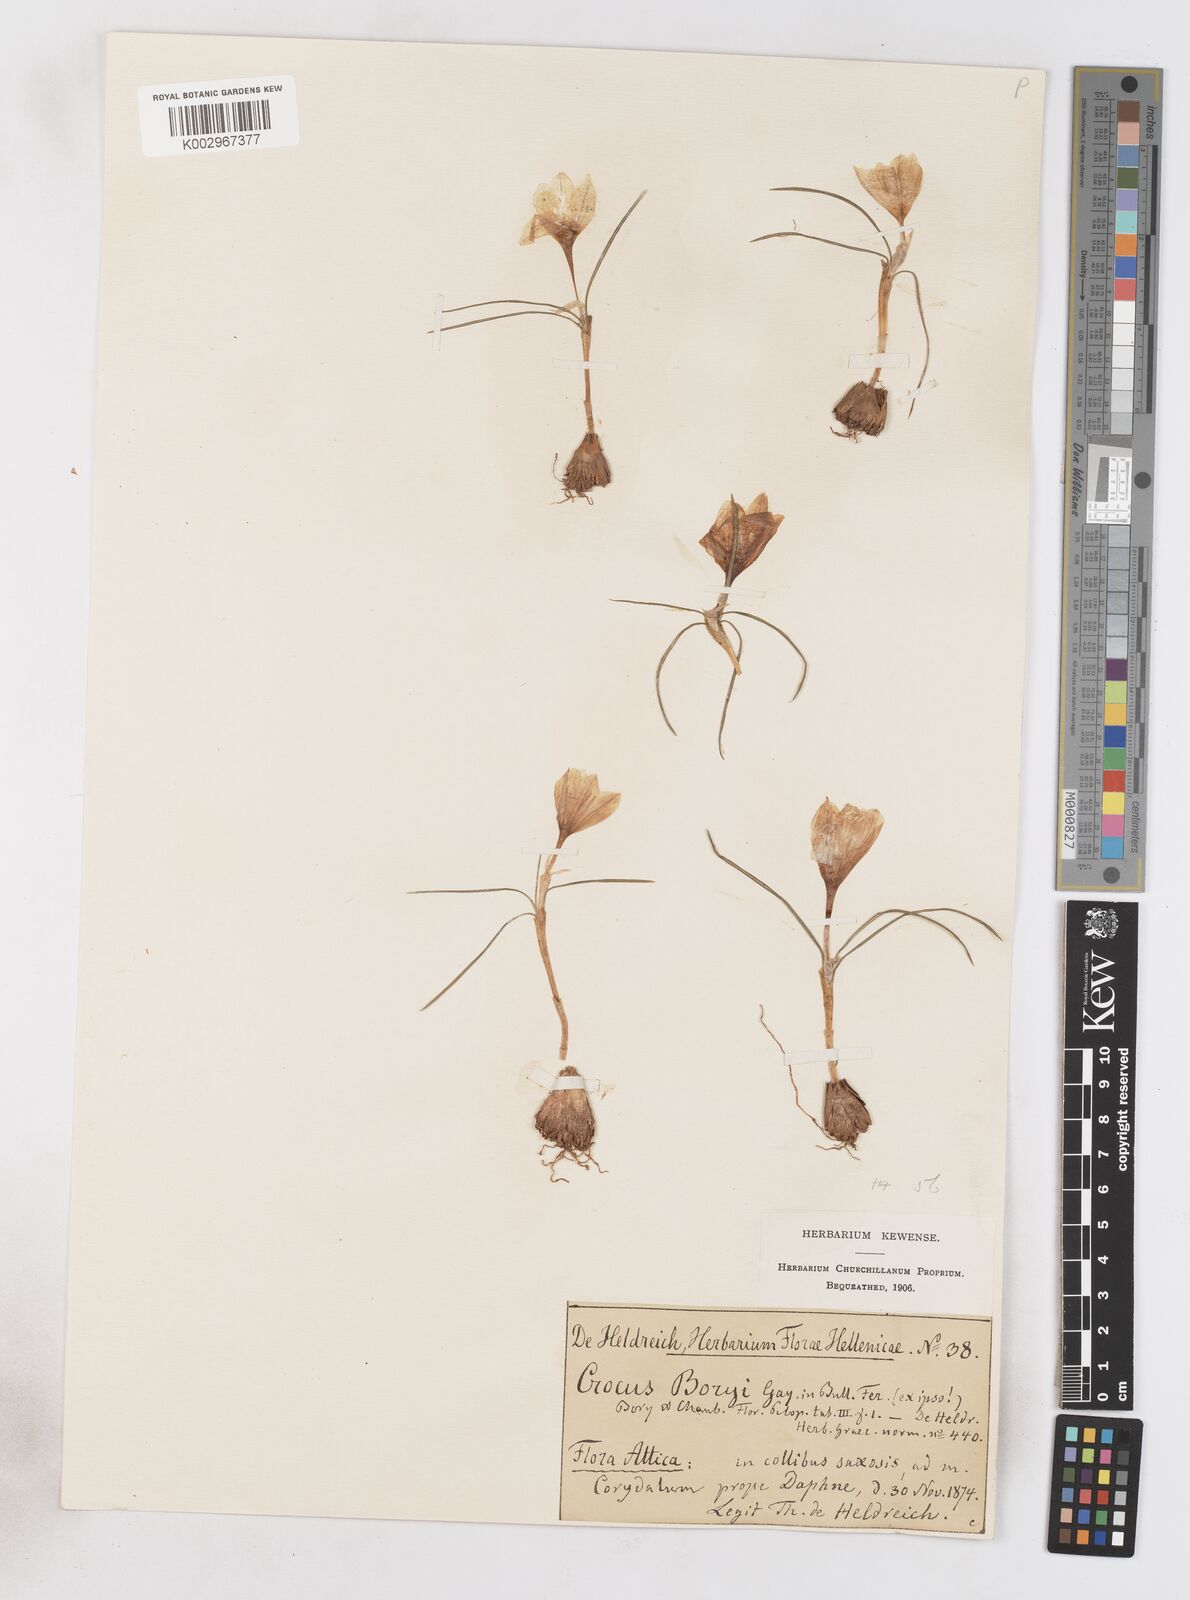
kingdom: Plantae
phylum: Tracheophyta
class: Liliopsida
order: Asparagales
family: Iridaceae
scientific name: Iridaceae
